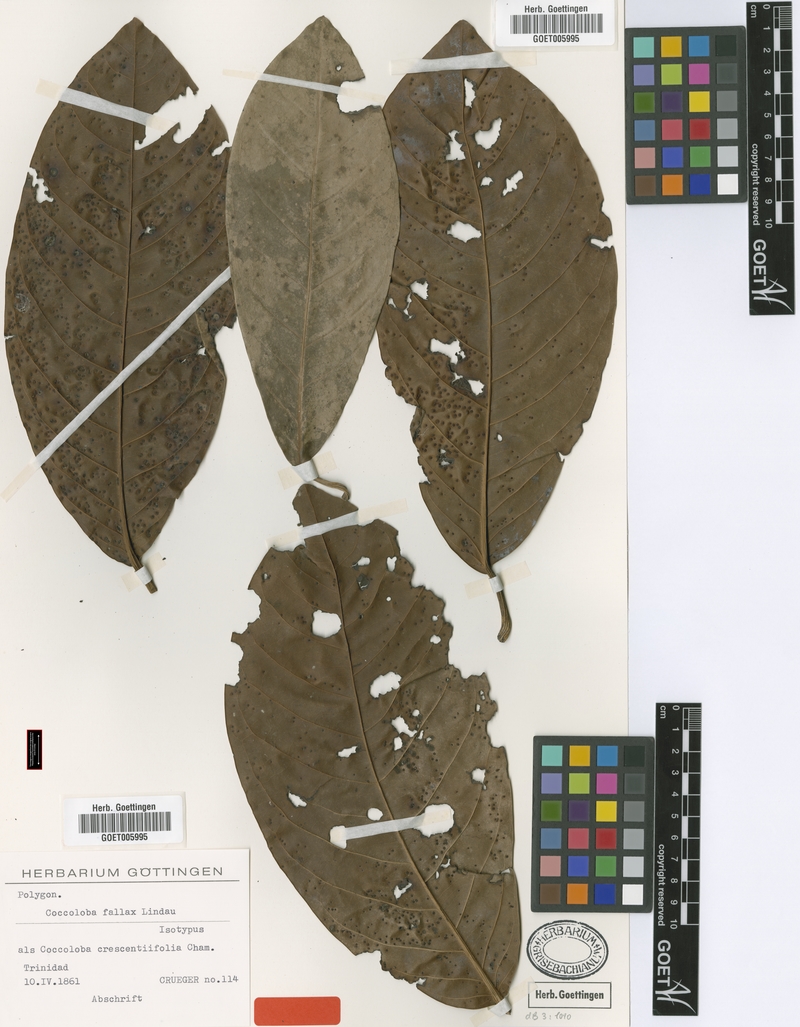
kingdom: Plantae
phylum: Tracheophyta
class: Magnoliopsida
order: Caryophyllales
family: Polygonaceae
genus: Coccoloba
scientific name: Coccoloba fallax
